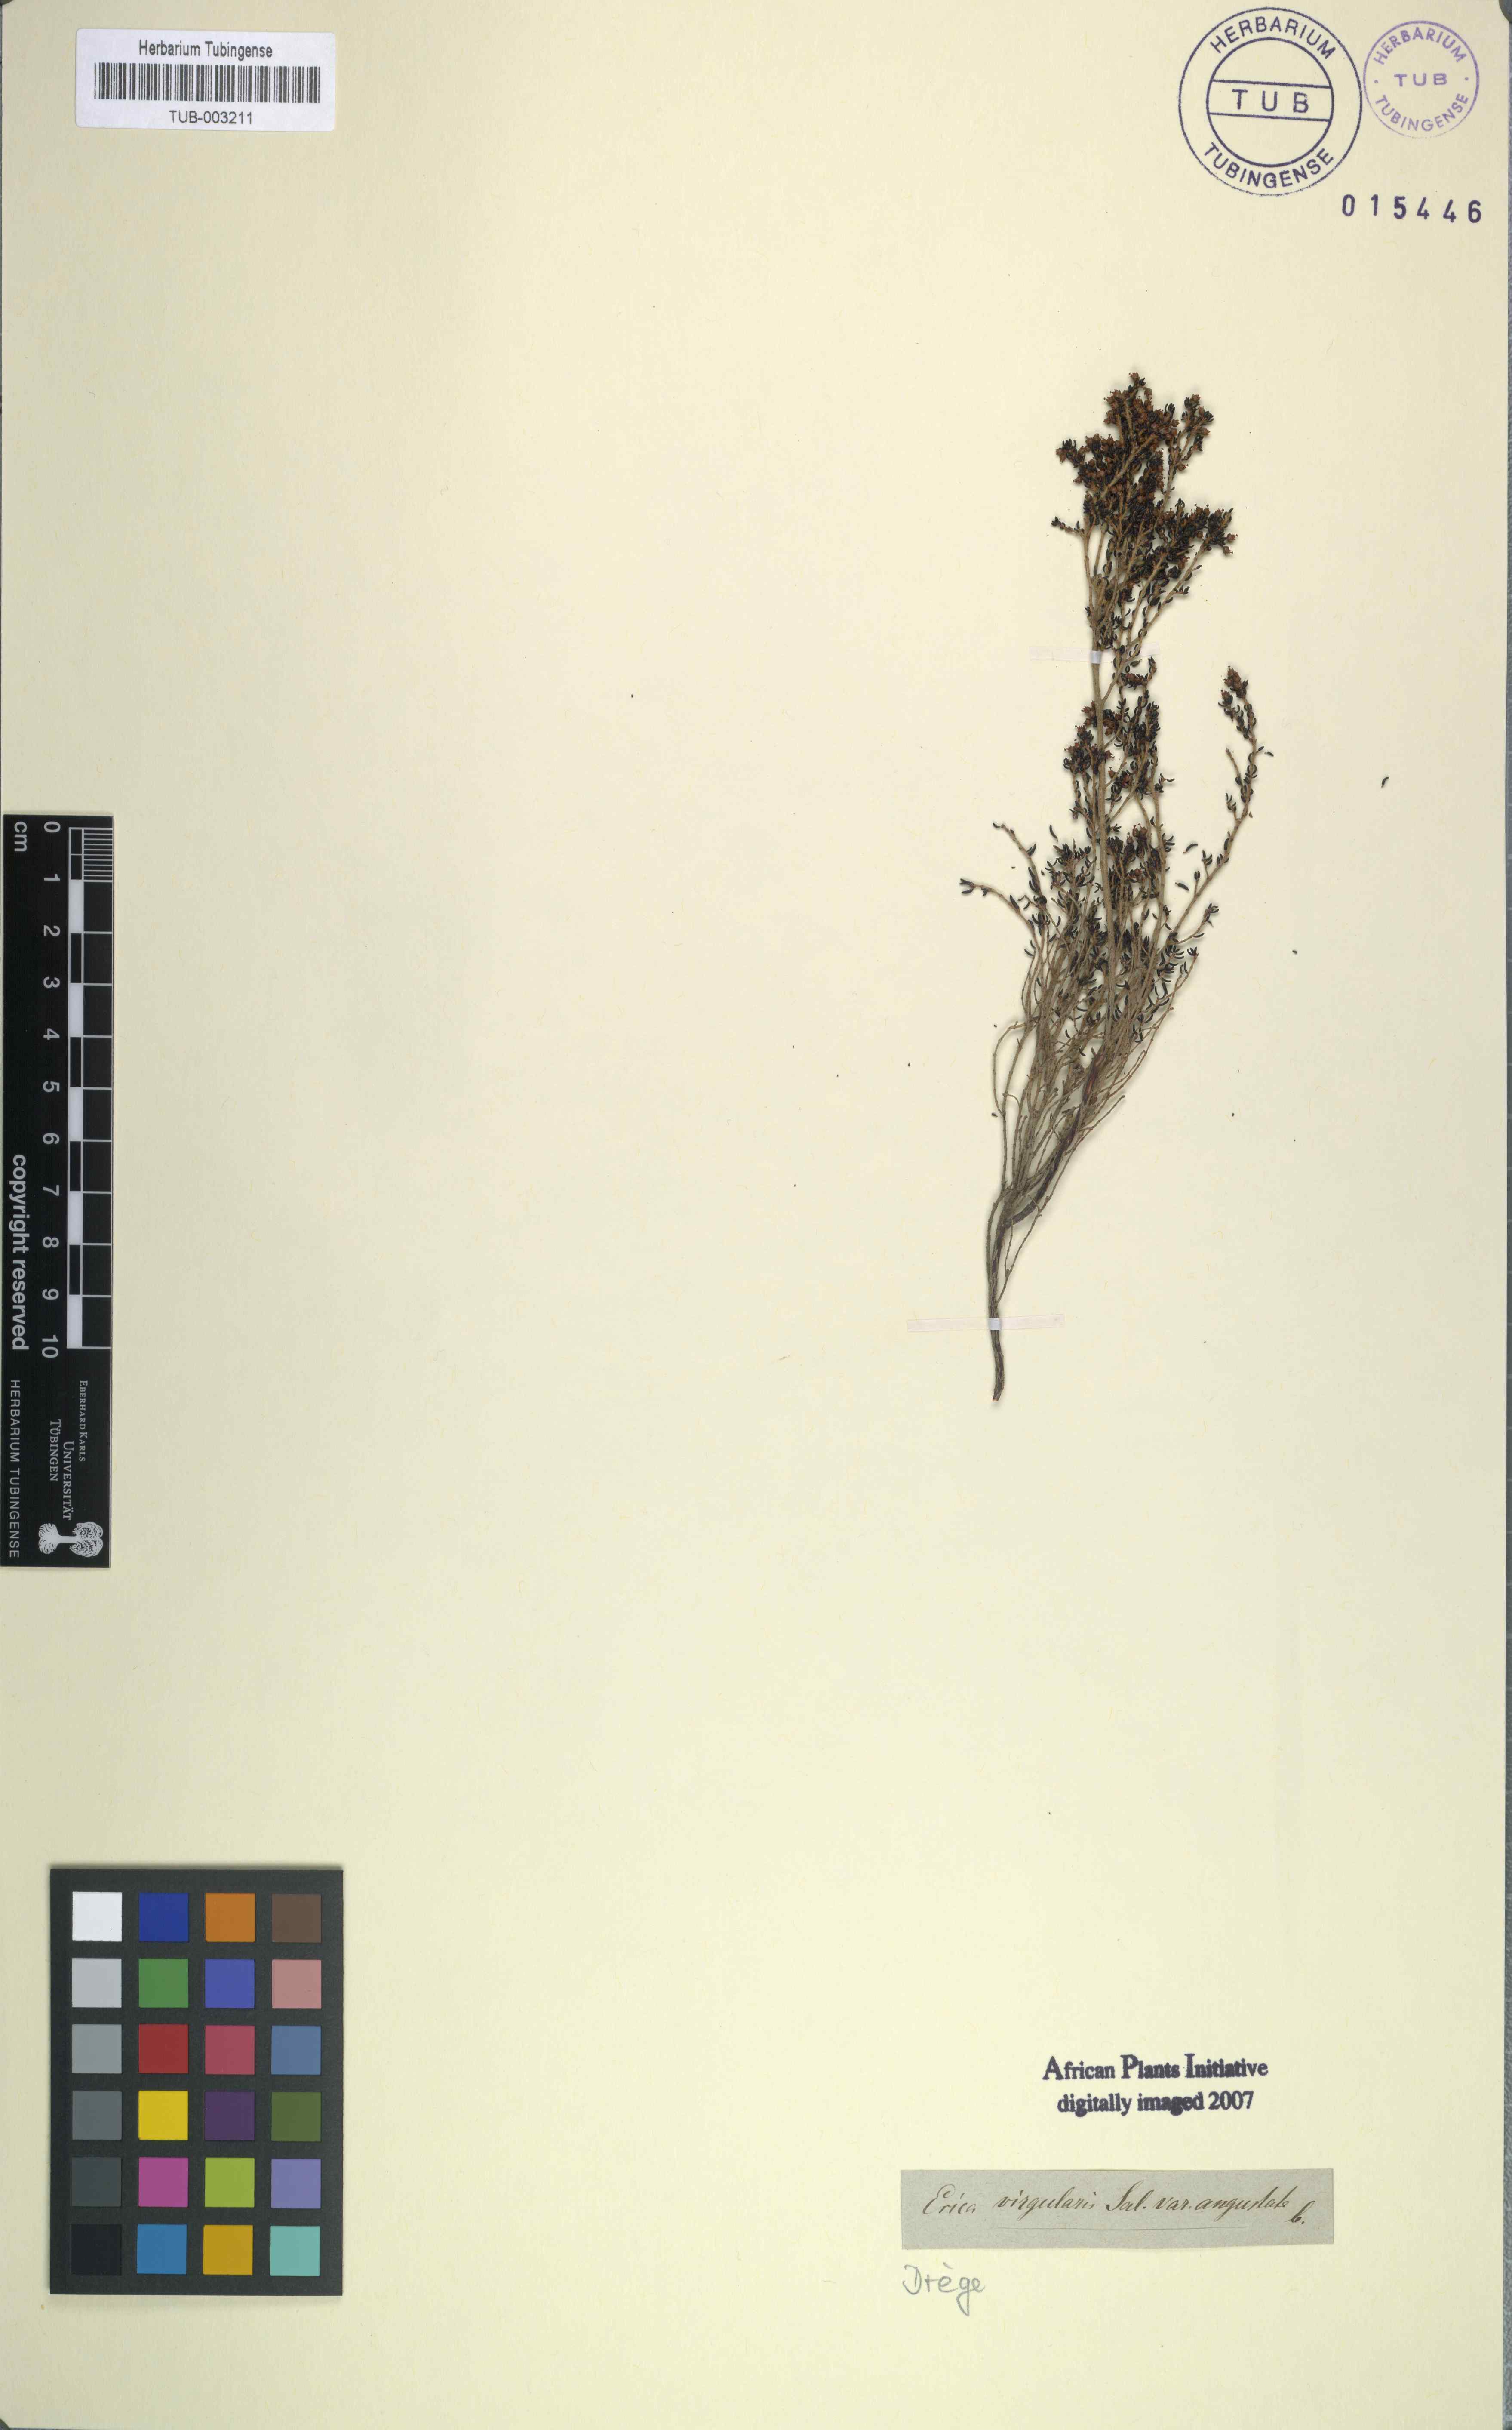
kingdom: Plantae
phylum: Tracheophyta
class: Magnoliopsida
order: Ericales
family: Ericaceae
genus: Erica
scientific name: Erica hispidula
